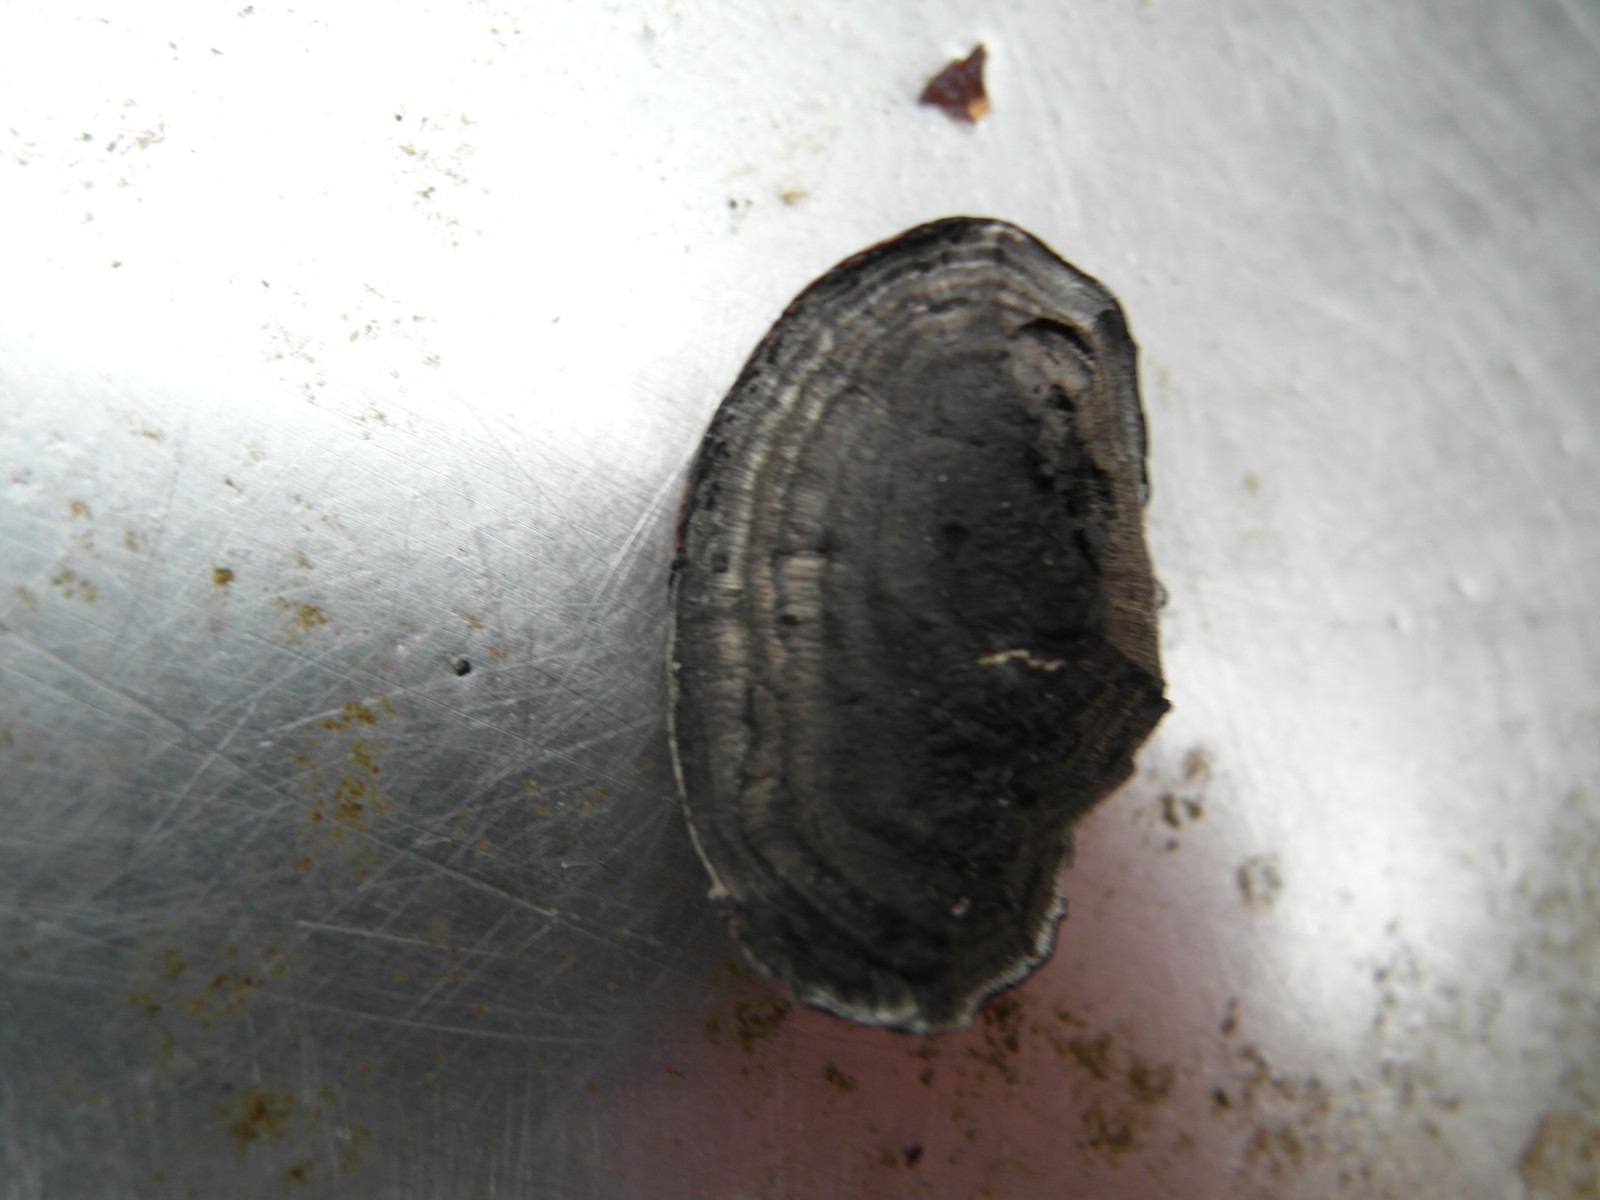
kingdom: Fungi
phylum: Ascomycota
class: Sordariomycetes
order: Xylariales
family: Hypoxylaceae
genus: Daldinia
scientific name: Daldinia concentrica
